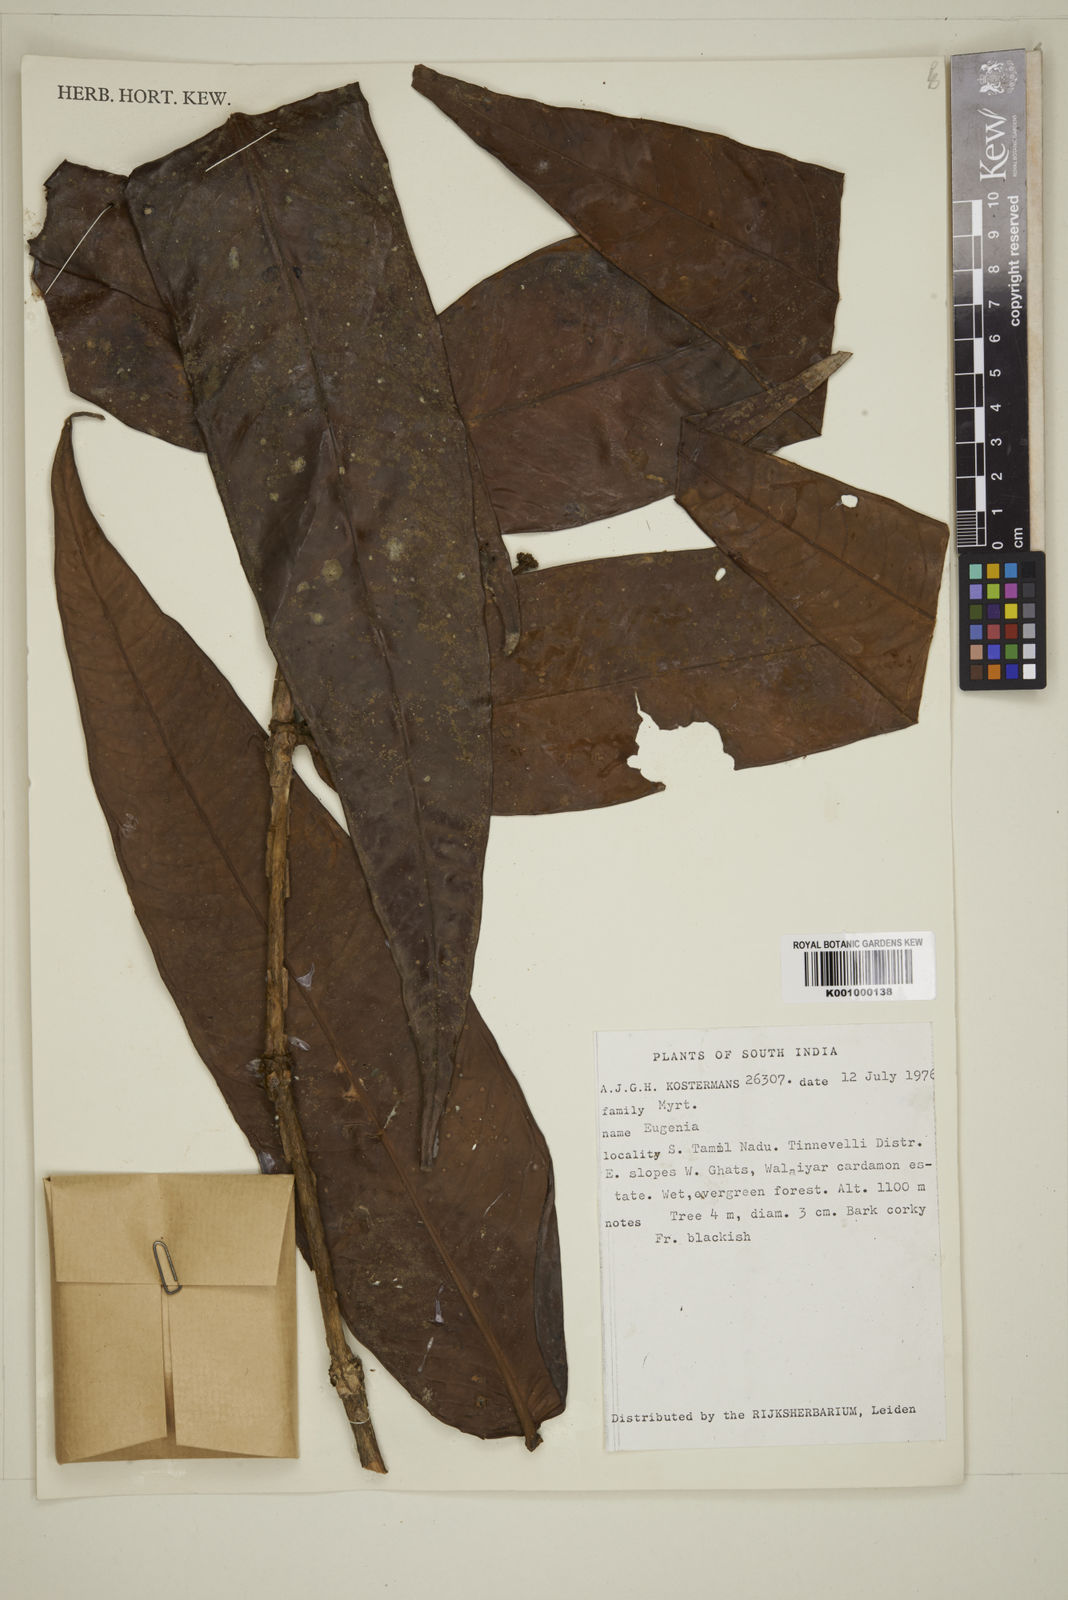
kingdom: Plantae
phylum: Tracheophyta
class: Magnoliopsida
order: Myrtales
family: Myrtaceae
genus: Eugenia
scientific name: Eugenia
